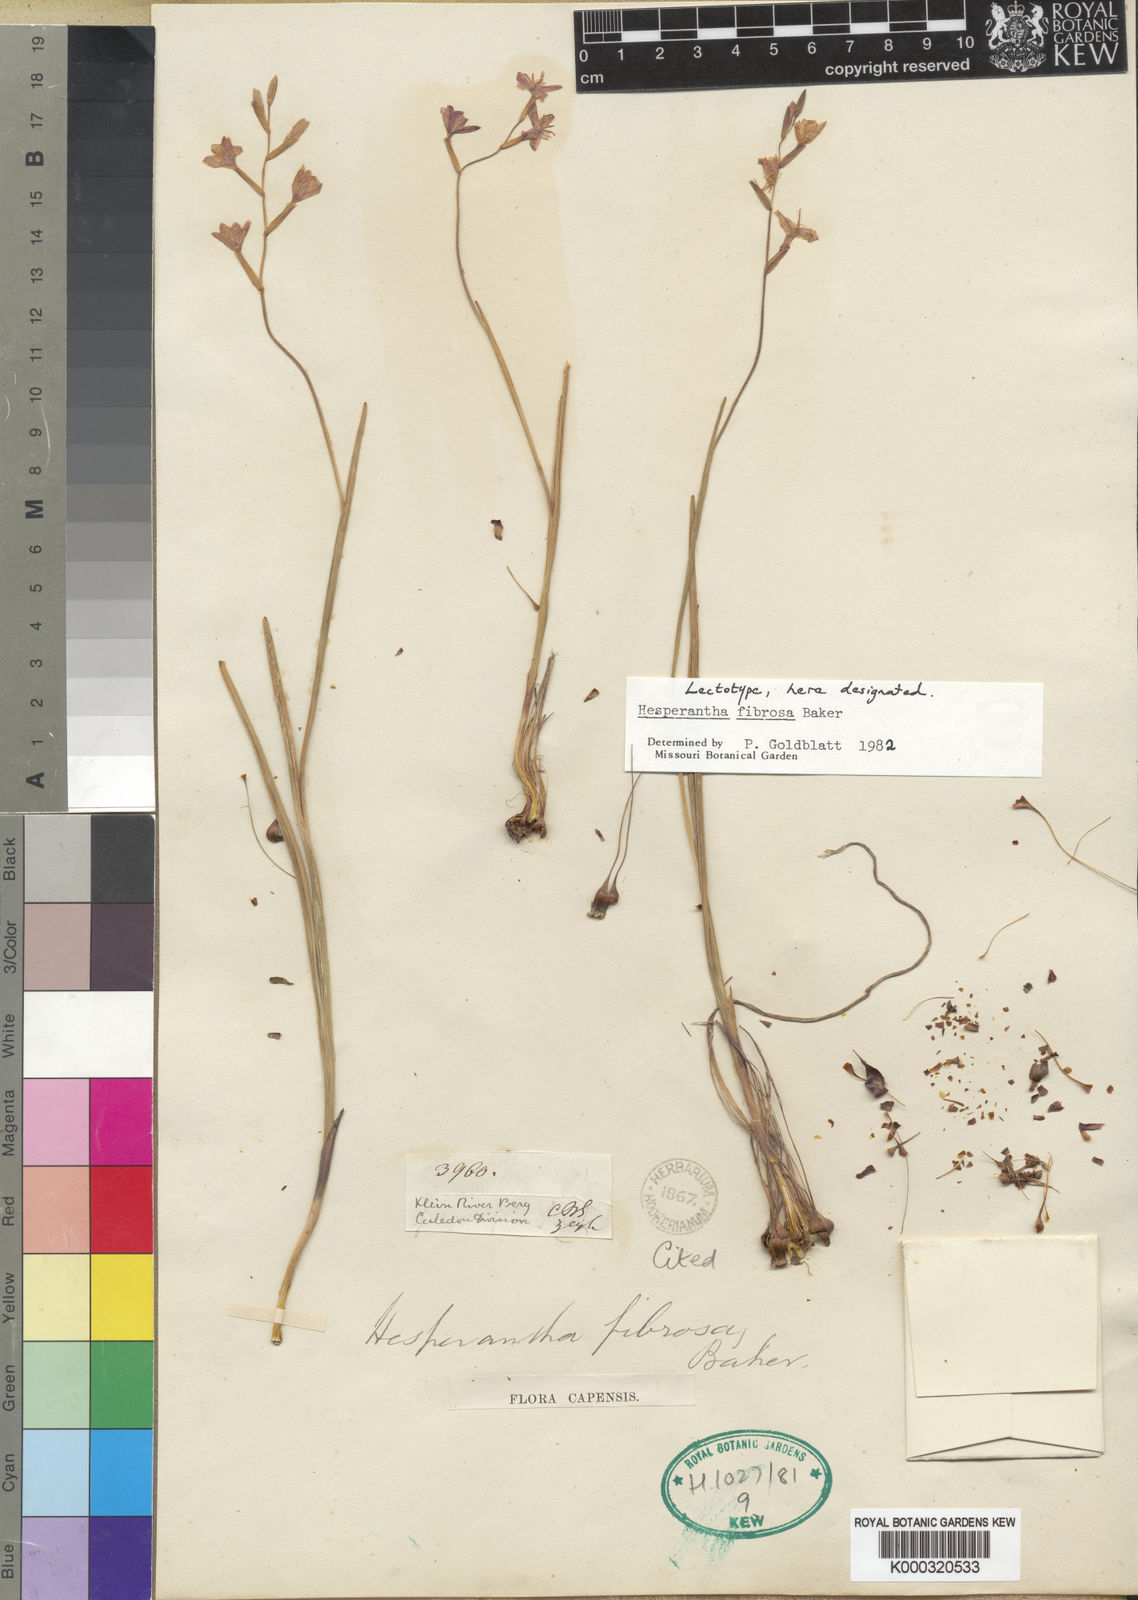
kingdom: Plantae
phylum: Tracheophyta
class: Liliopsida
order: Asparagales
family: Iridaceae
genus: Hesperantha
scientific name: Hesperantha fibrosa
